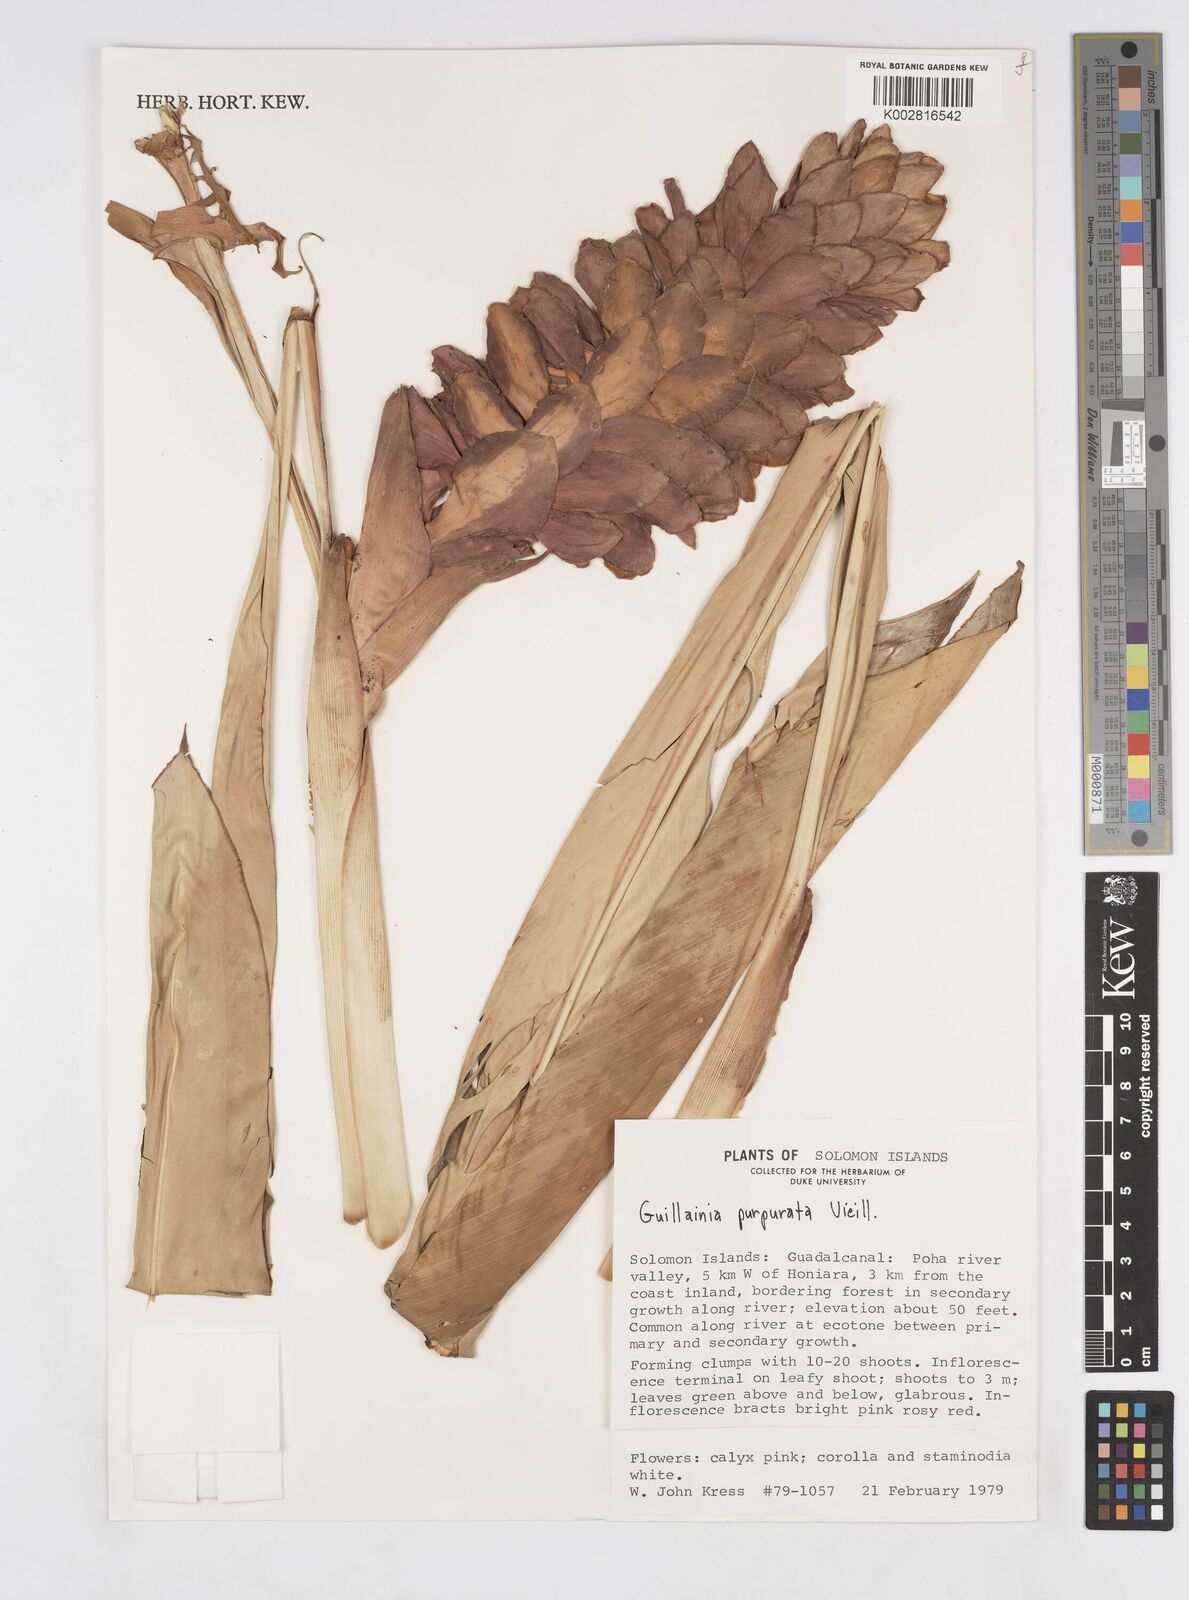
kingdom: Plantae
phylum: Tracheophyta
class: Liliopsida
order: Zingiberales
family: Zingiberaceae
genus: Alpinia
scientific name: Alpinia purpurata
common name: Red ginger
